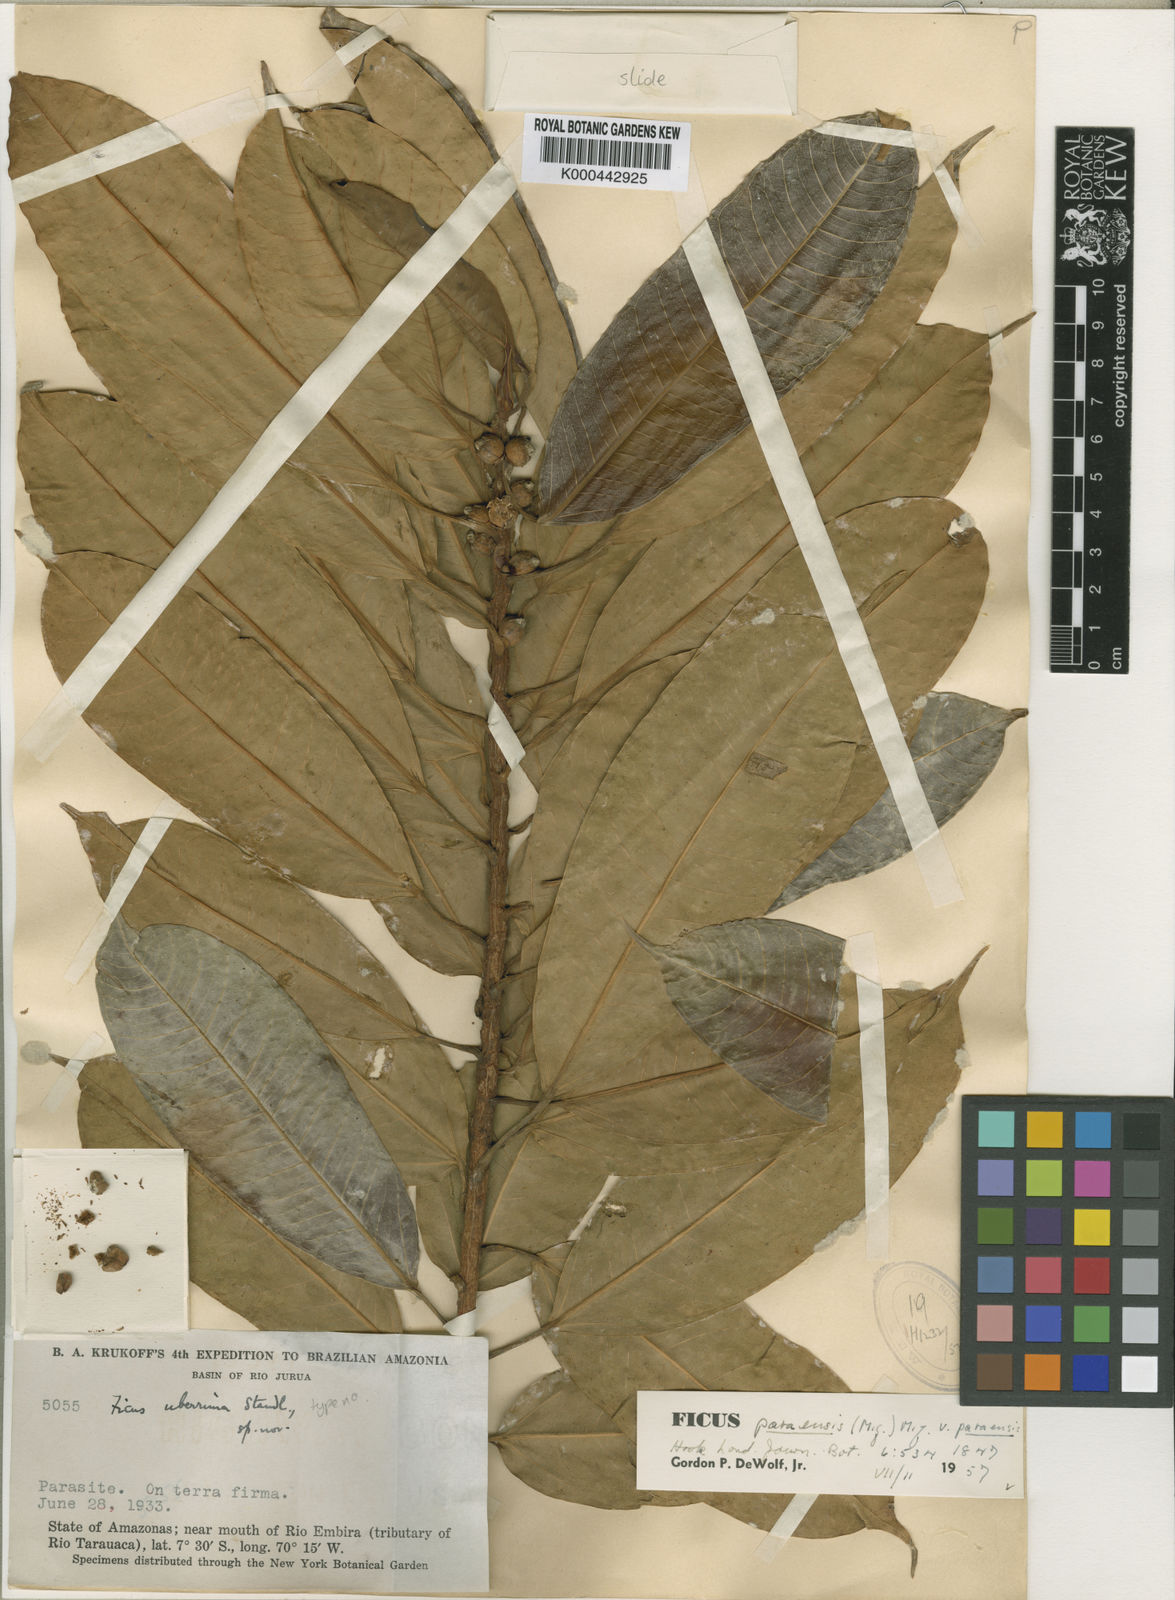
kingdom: Plantae
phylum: Tracheophyta
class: Magnoliopsida
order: Rosales
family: Moraceae
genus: Ficus
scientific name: Ficus paraensis
